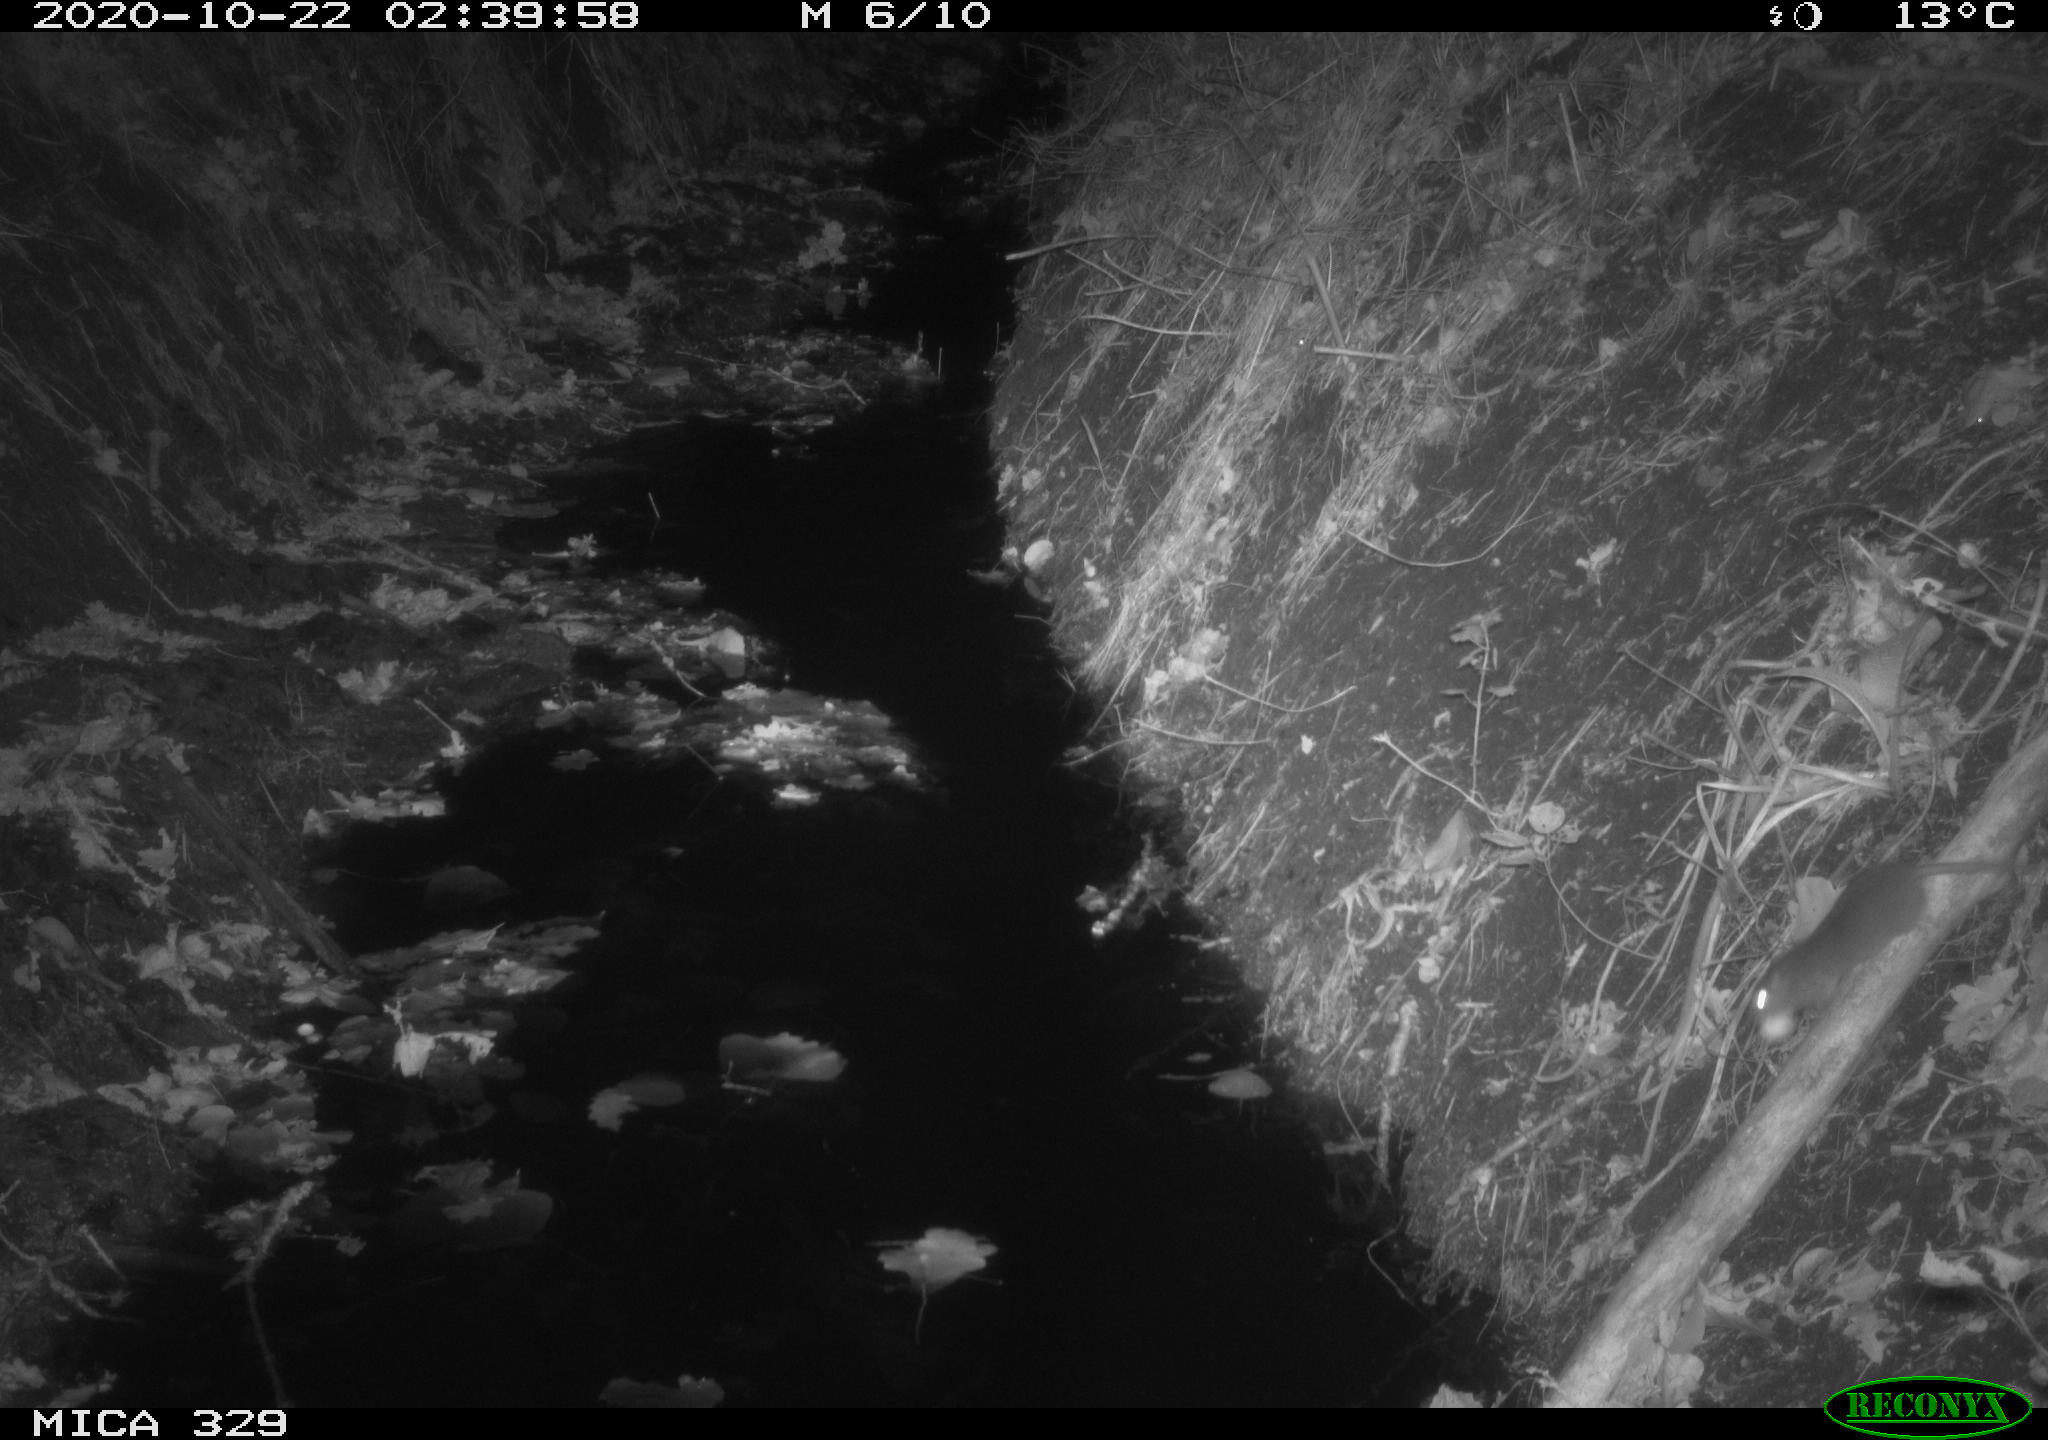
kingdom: Animalia
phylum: Chordata
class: Mammalia
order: Rodentia
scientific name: Rodentia
